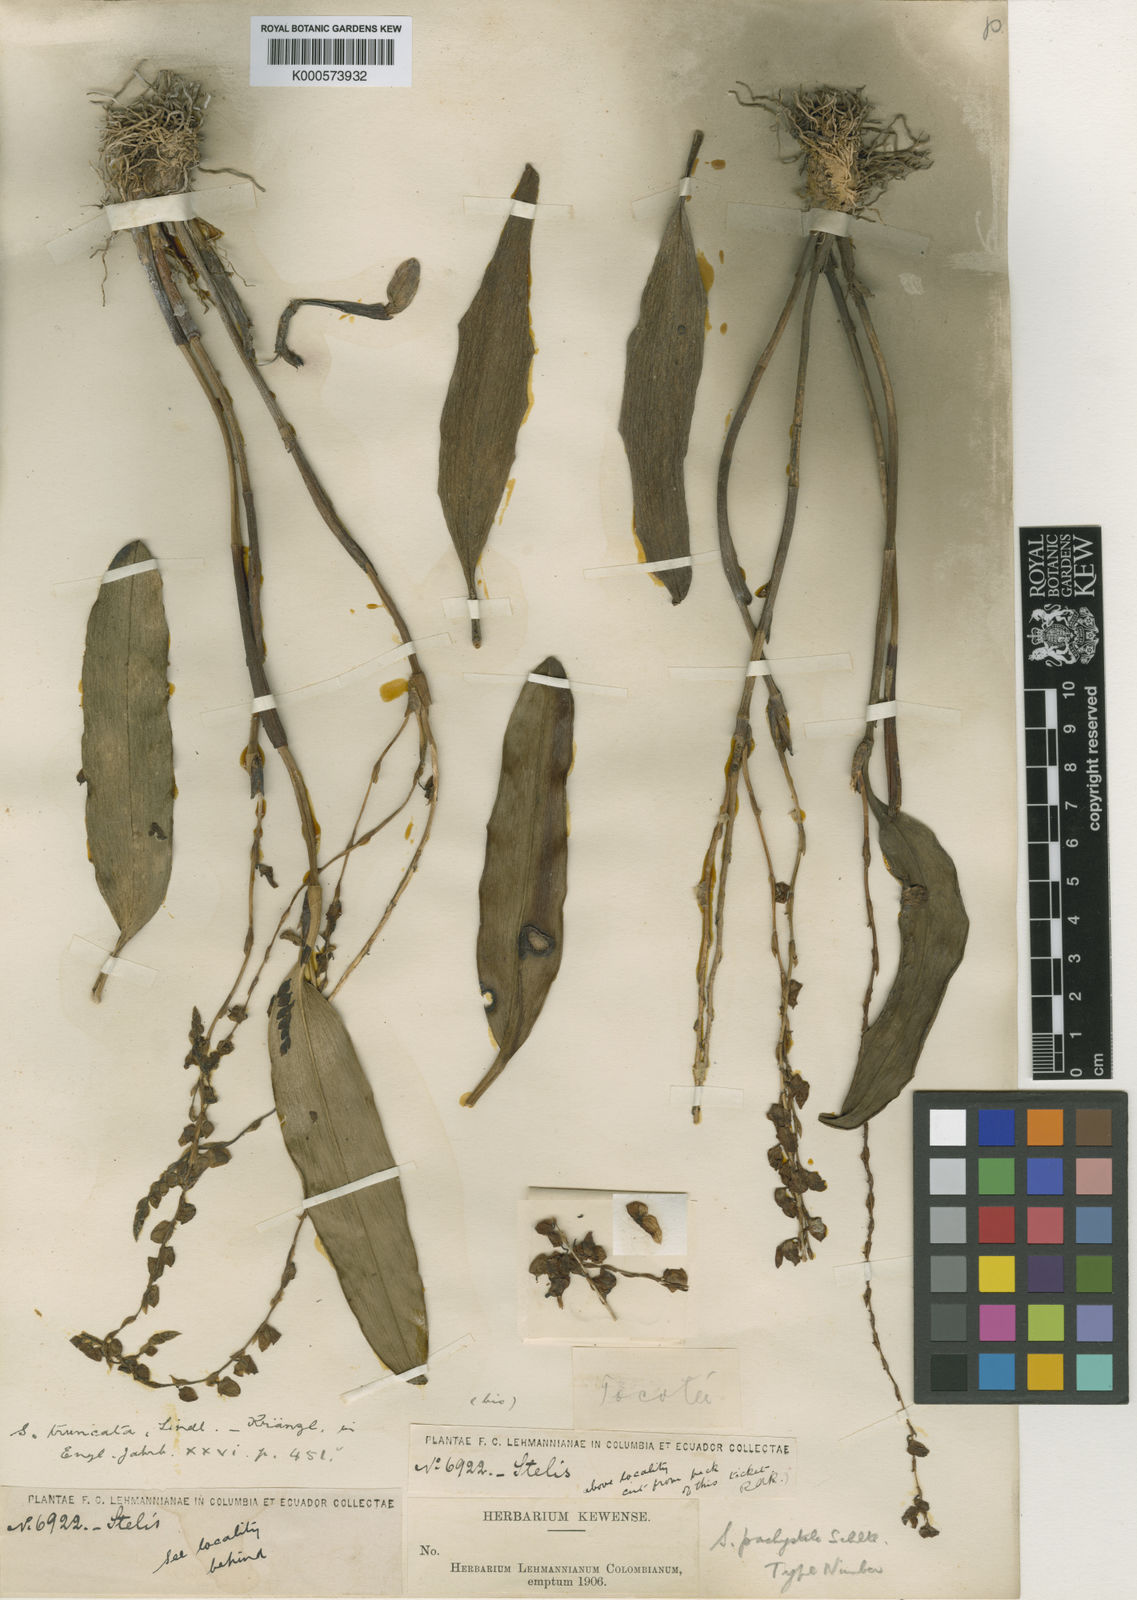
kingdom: Plantae
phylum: Tracheophyta
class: Liliopsida
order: Asparagales
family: Orchidaceae
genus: Stelis
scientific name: Stelis purpurea
